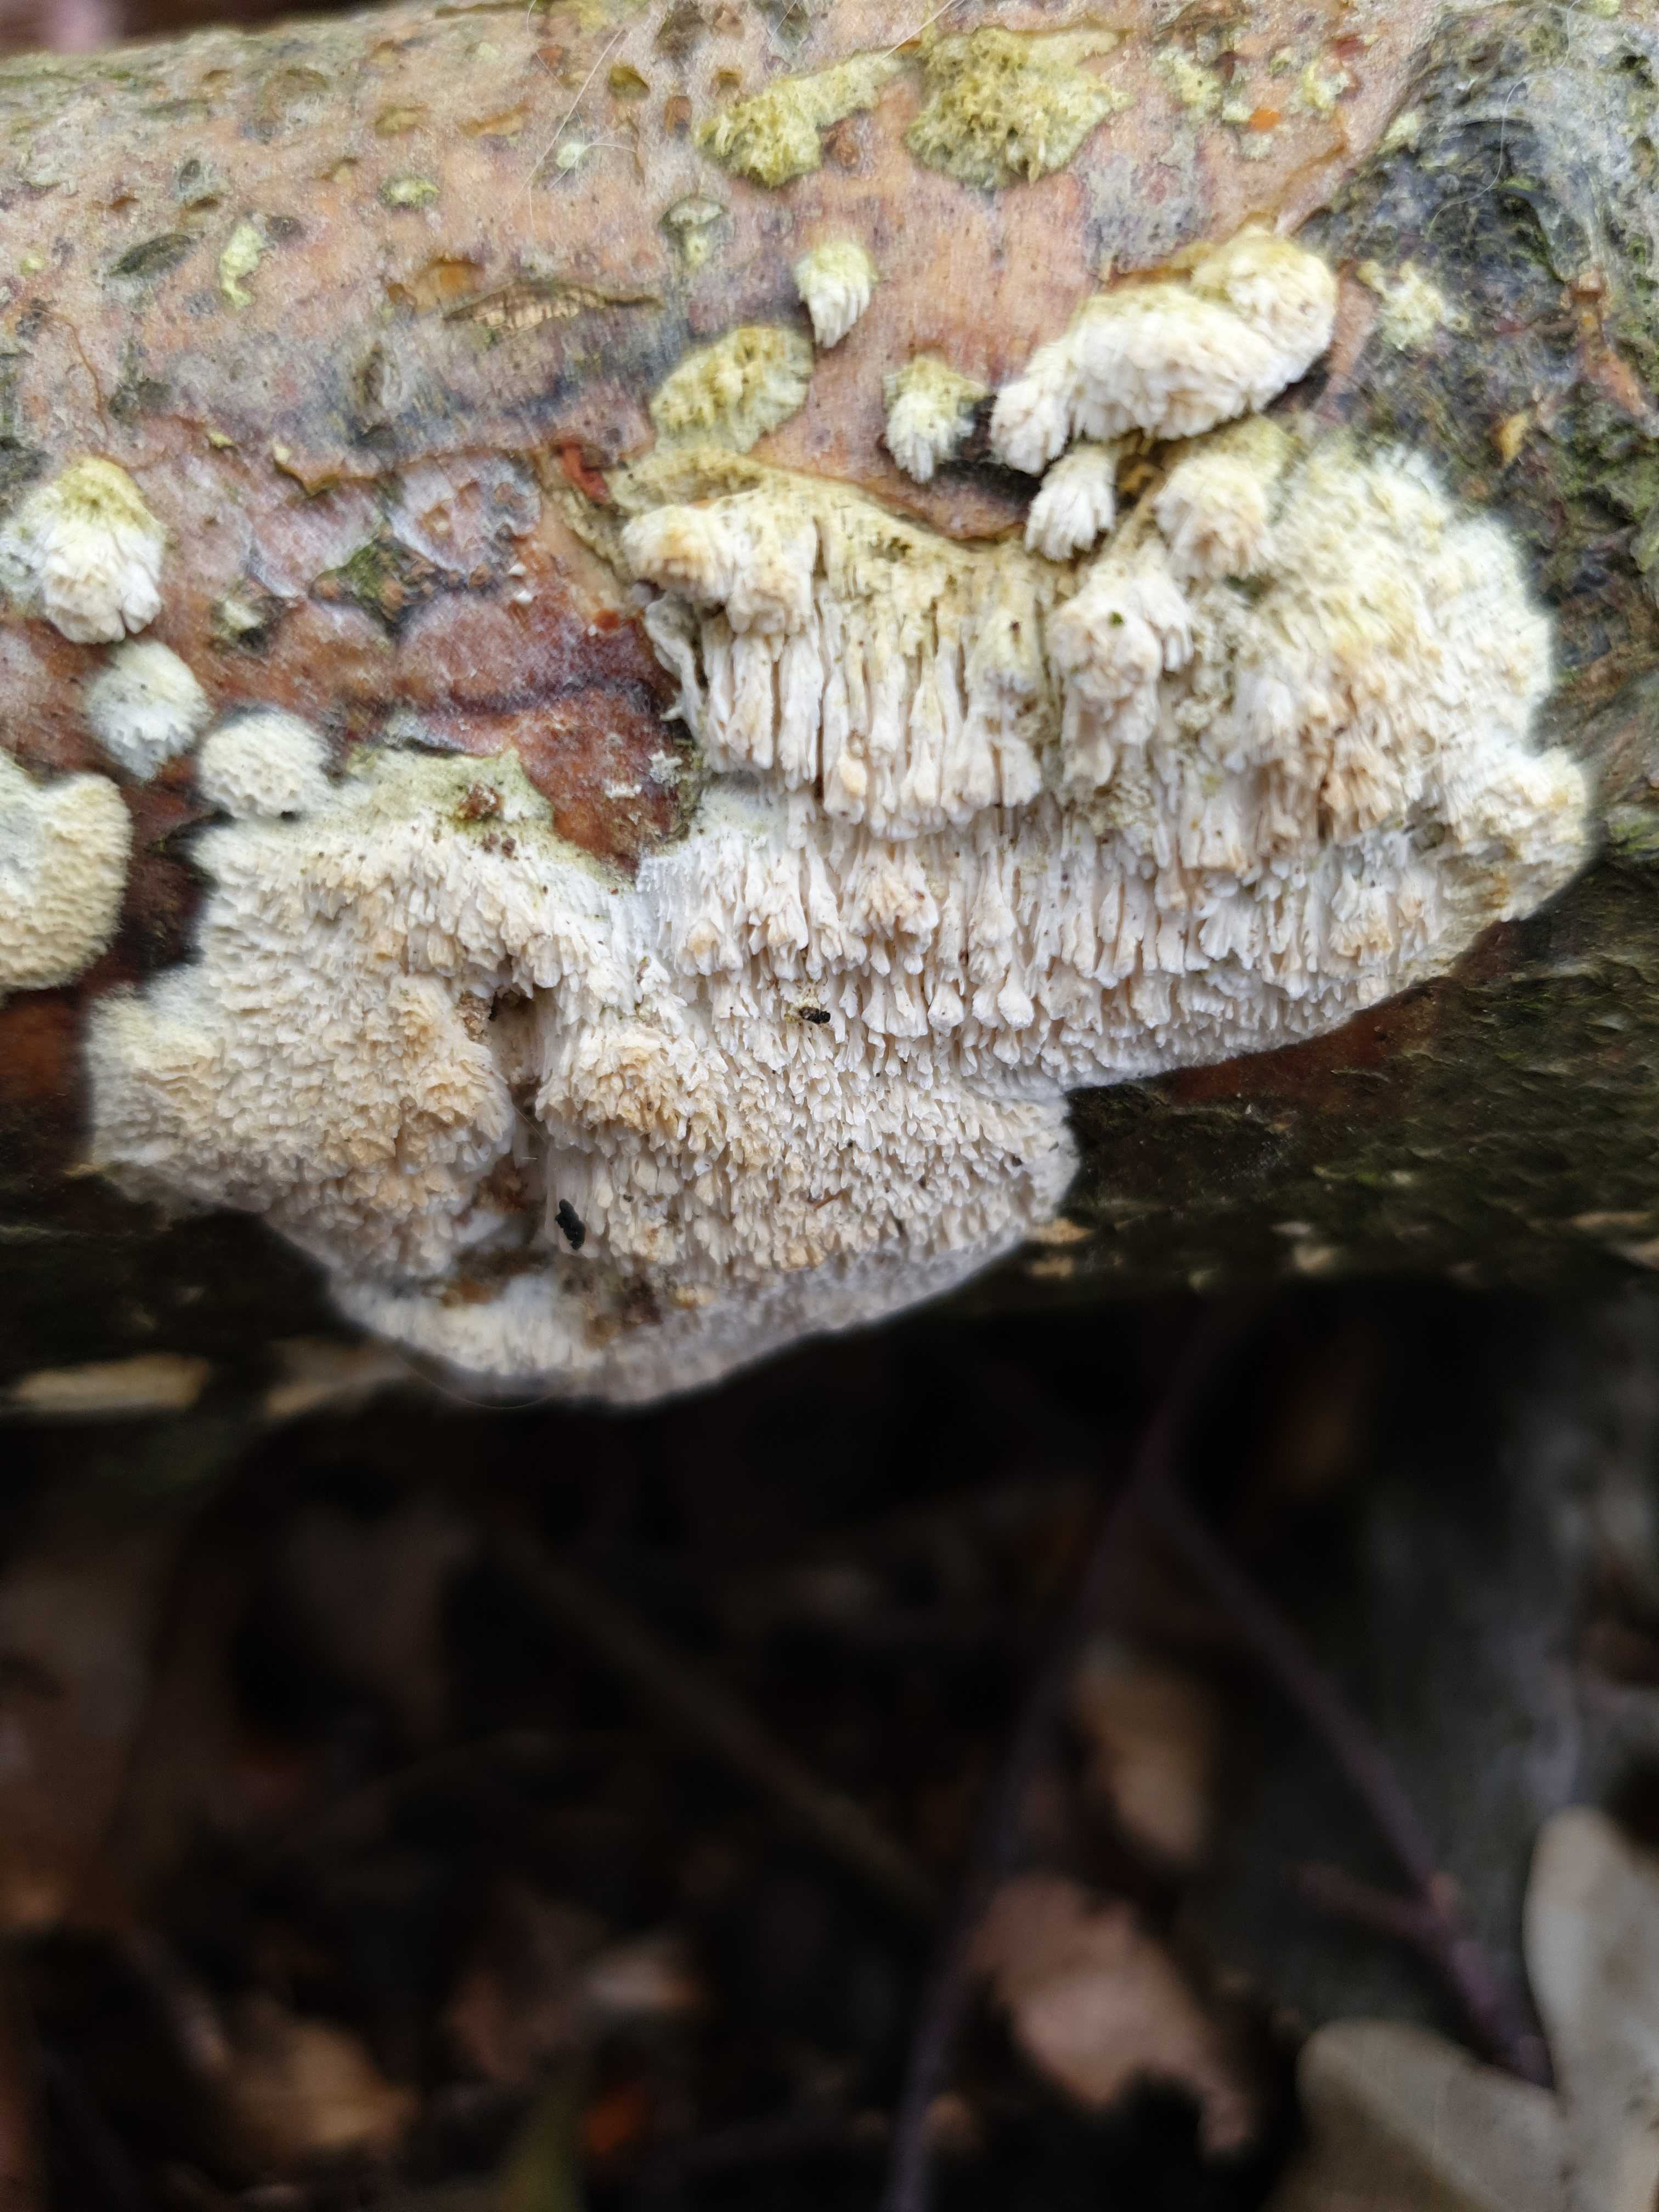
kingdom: Fungi
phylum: Basidiomycota
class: Agaricomycetes
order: Hymenochaetales
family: Schizoporaceae
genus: Schizopora
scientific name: Schizopora paradoxa
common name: hvid tandsvamp
